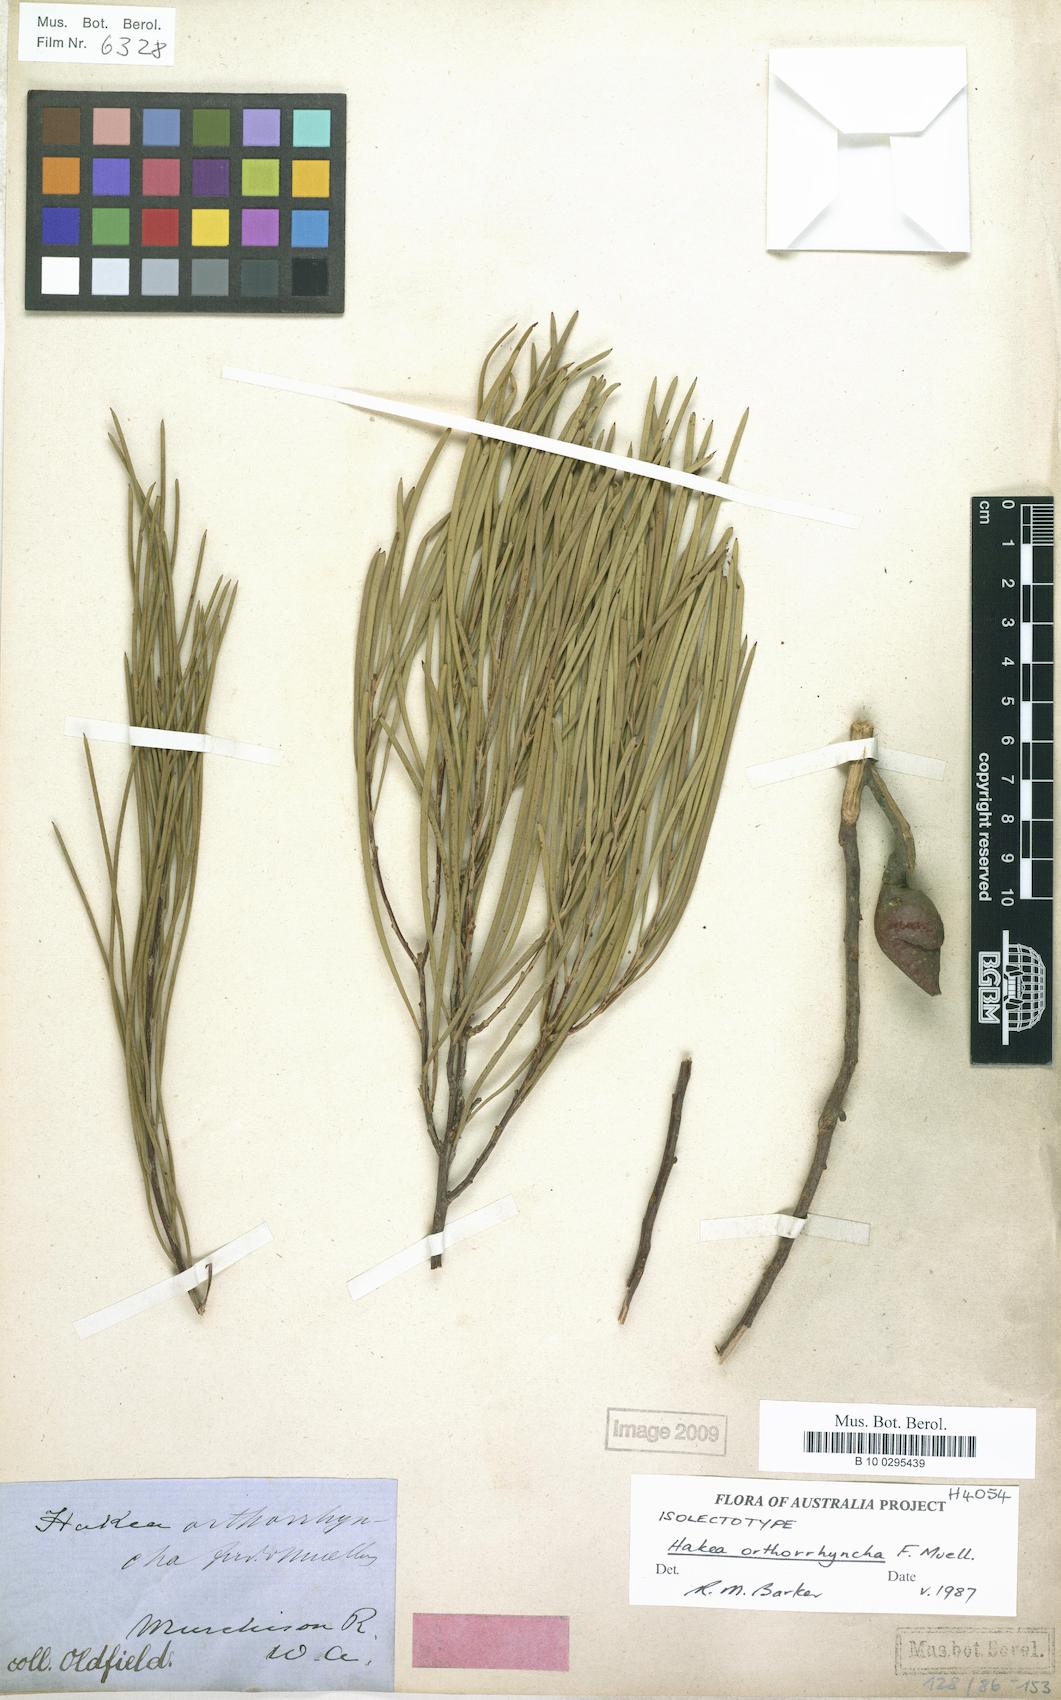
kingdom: Plantae
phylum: Tracheophyta
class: Magnoliopsida
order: Proteales
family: Proteaceae
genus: Hakea
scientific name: Hakea orthorrhyncha
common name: Bird beak hakea
